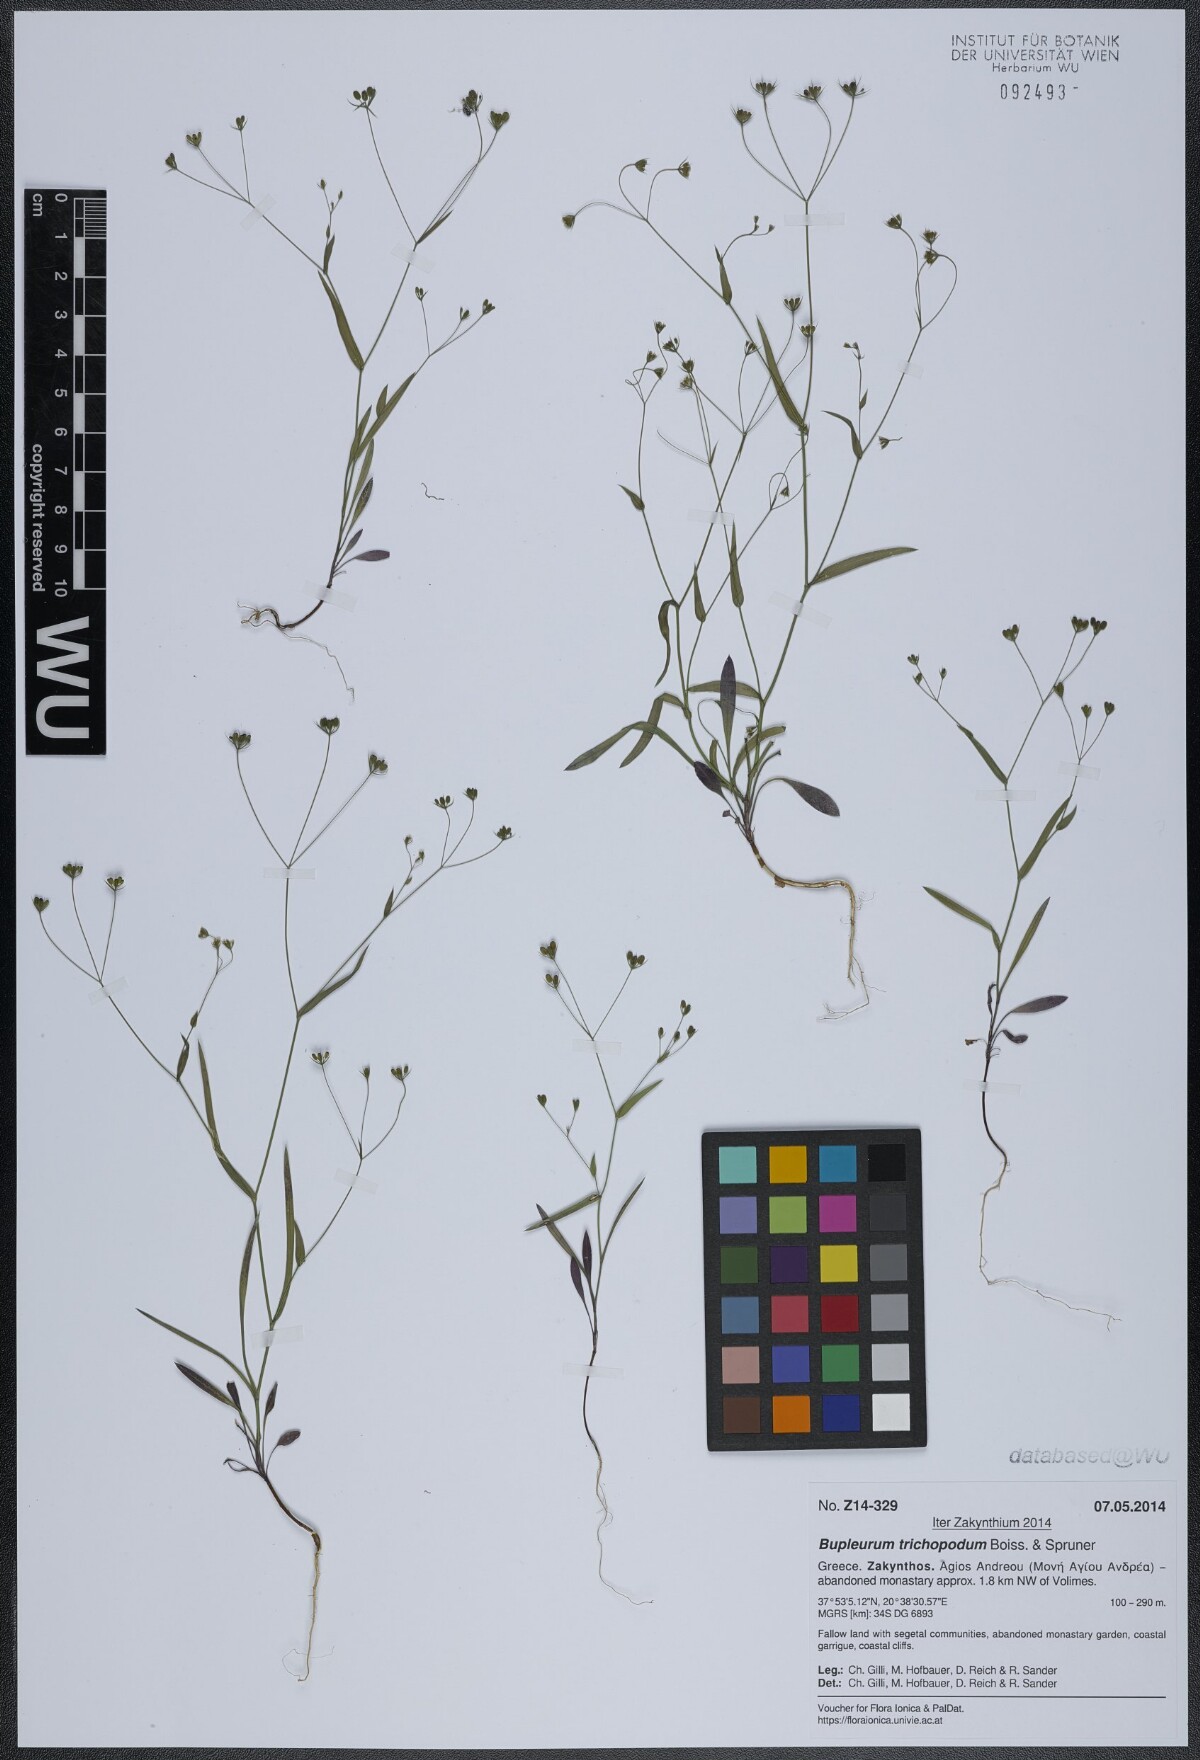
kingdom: Plantae
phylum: Tracheophyta
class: Magnoliopsida
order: Apiales
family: Apiaceae
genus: Bupleurum
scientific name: Bupleurum trichopodum
